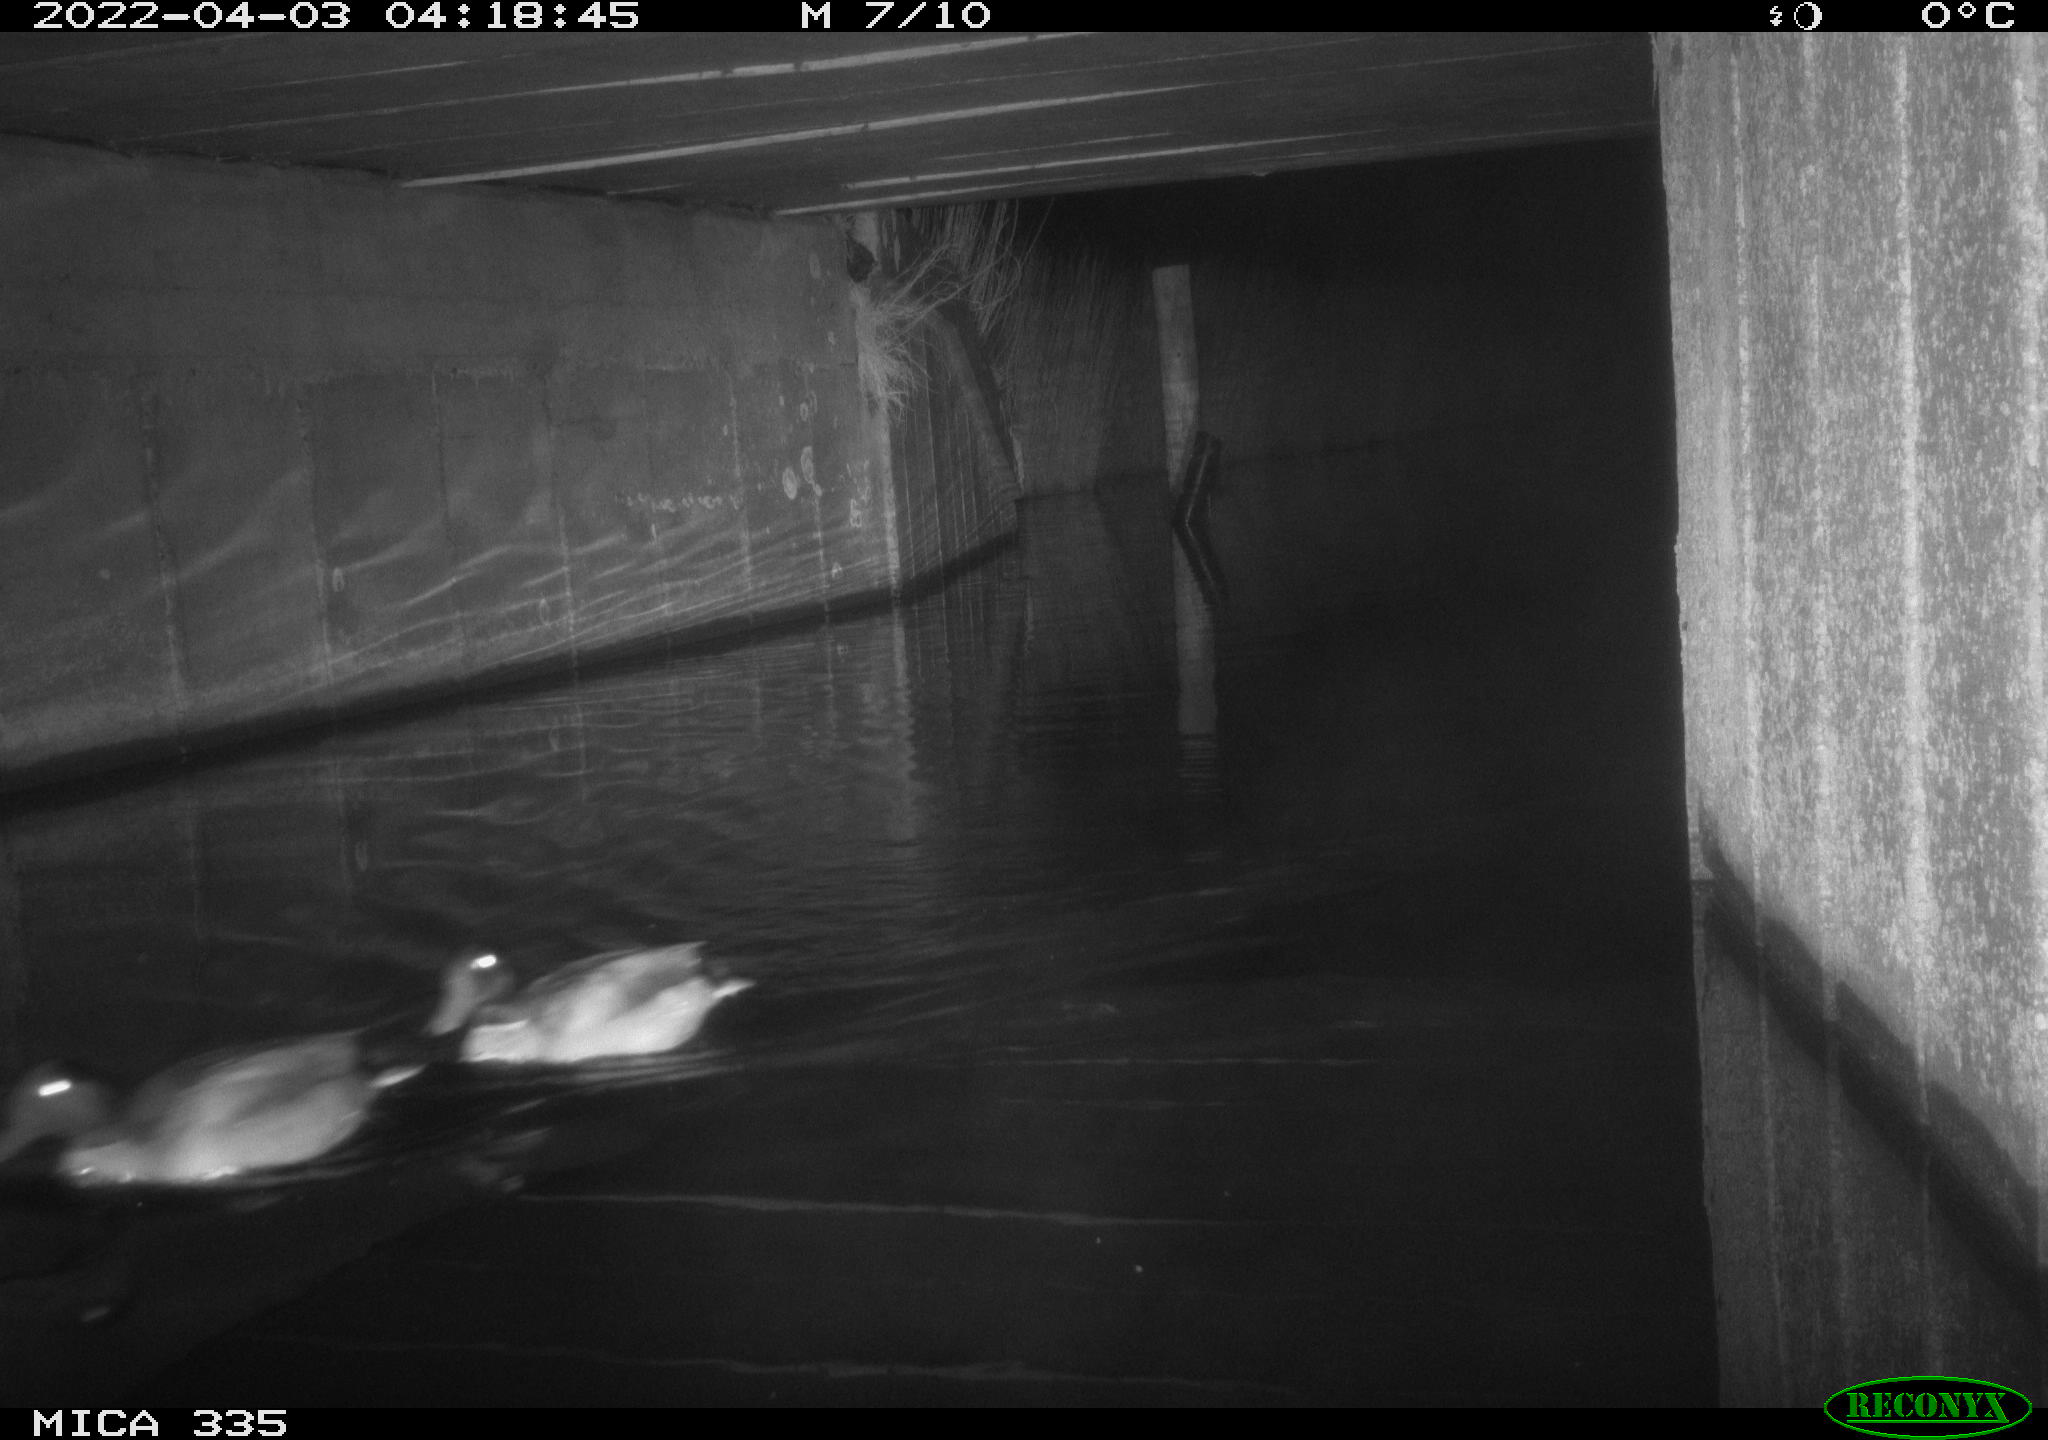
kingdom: Animalia
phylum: Chordata
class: Aves
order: Anseriformes
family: Anatidae
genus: Anas
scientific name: Anas platyrhynchos
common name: Mallard
